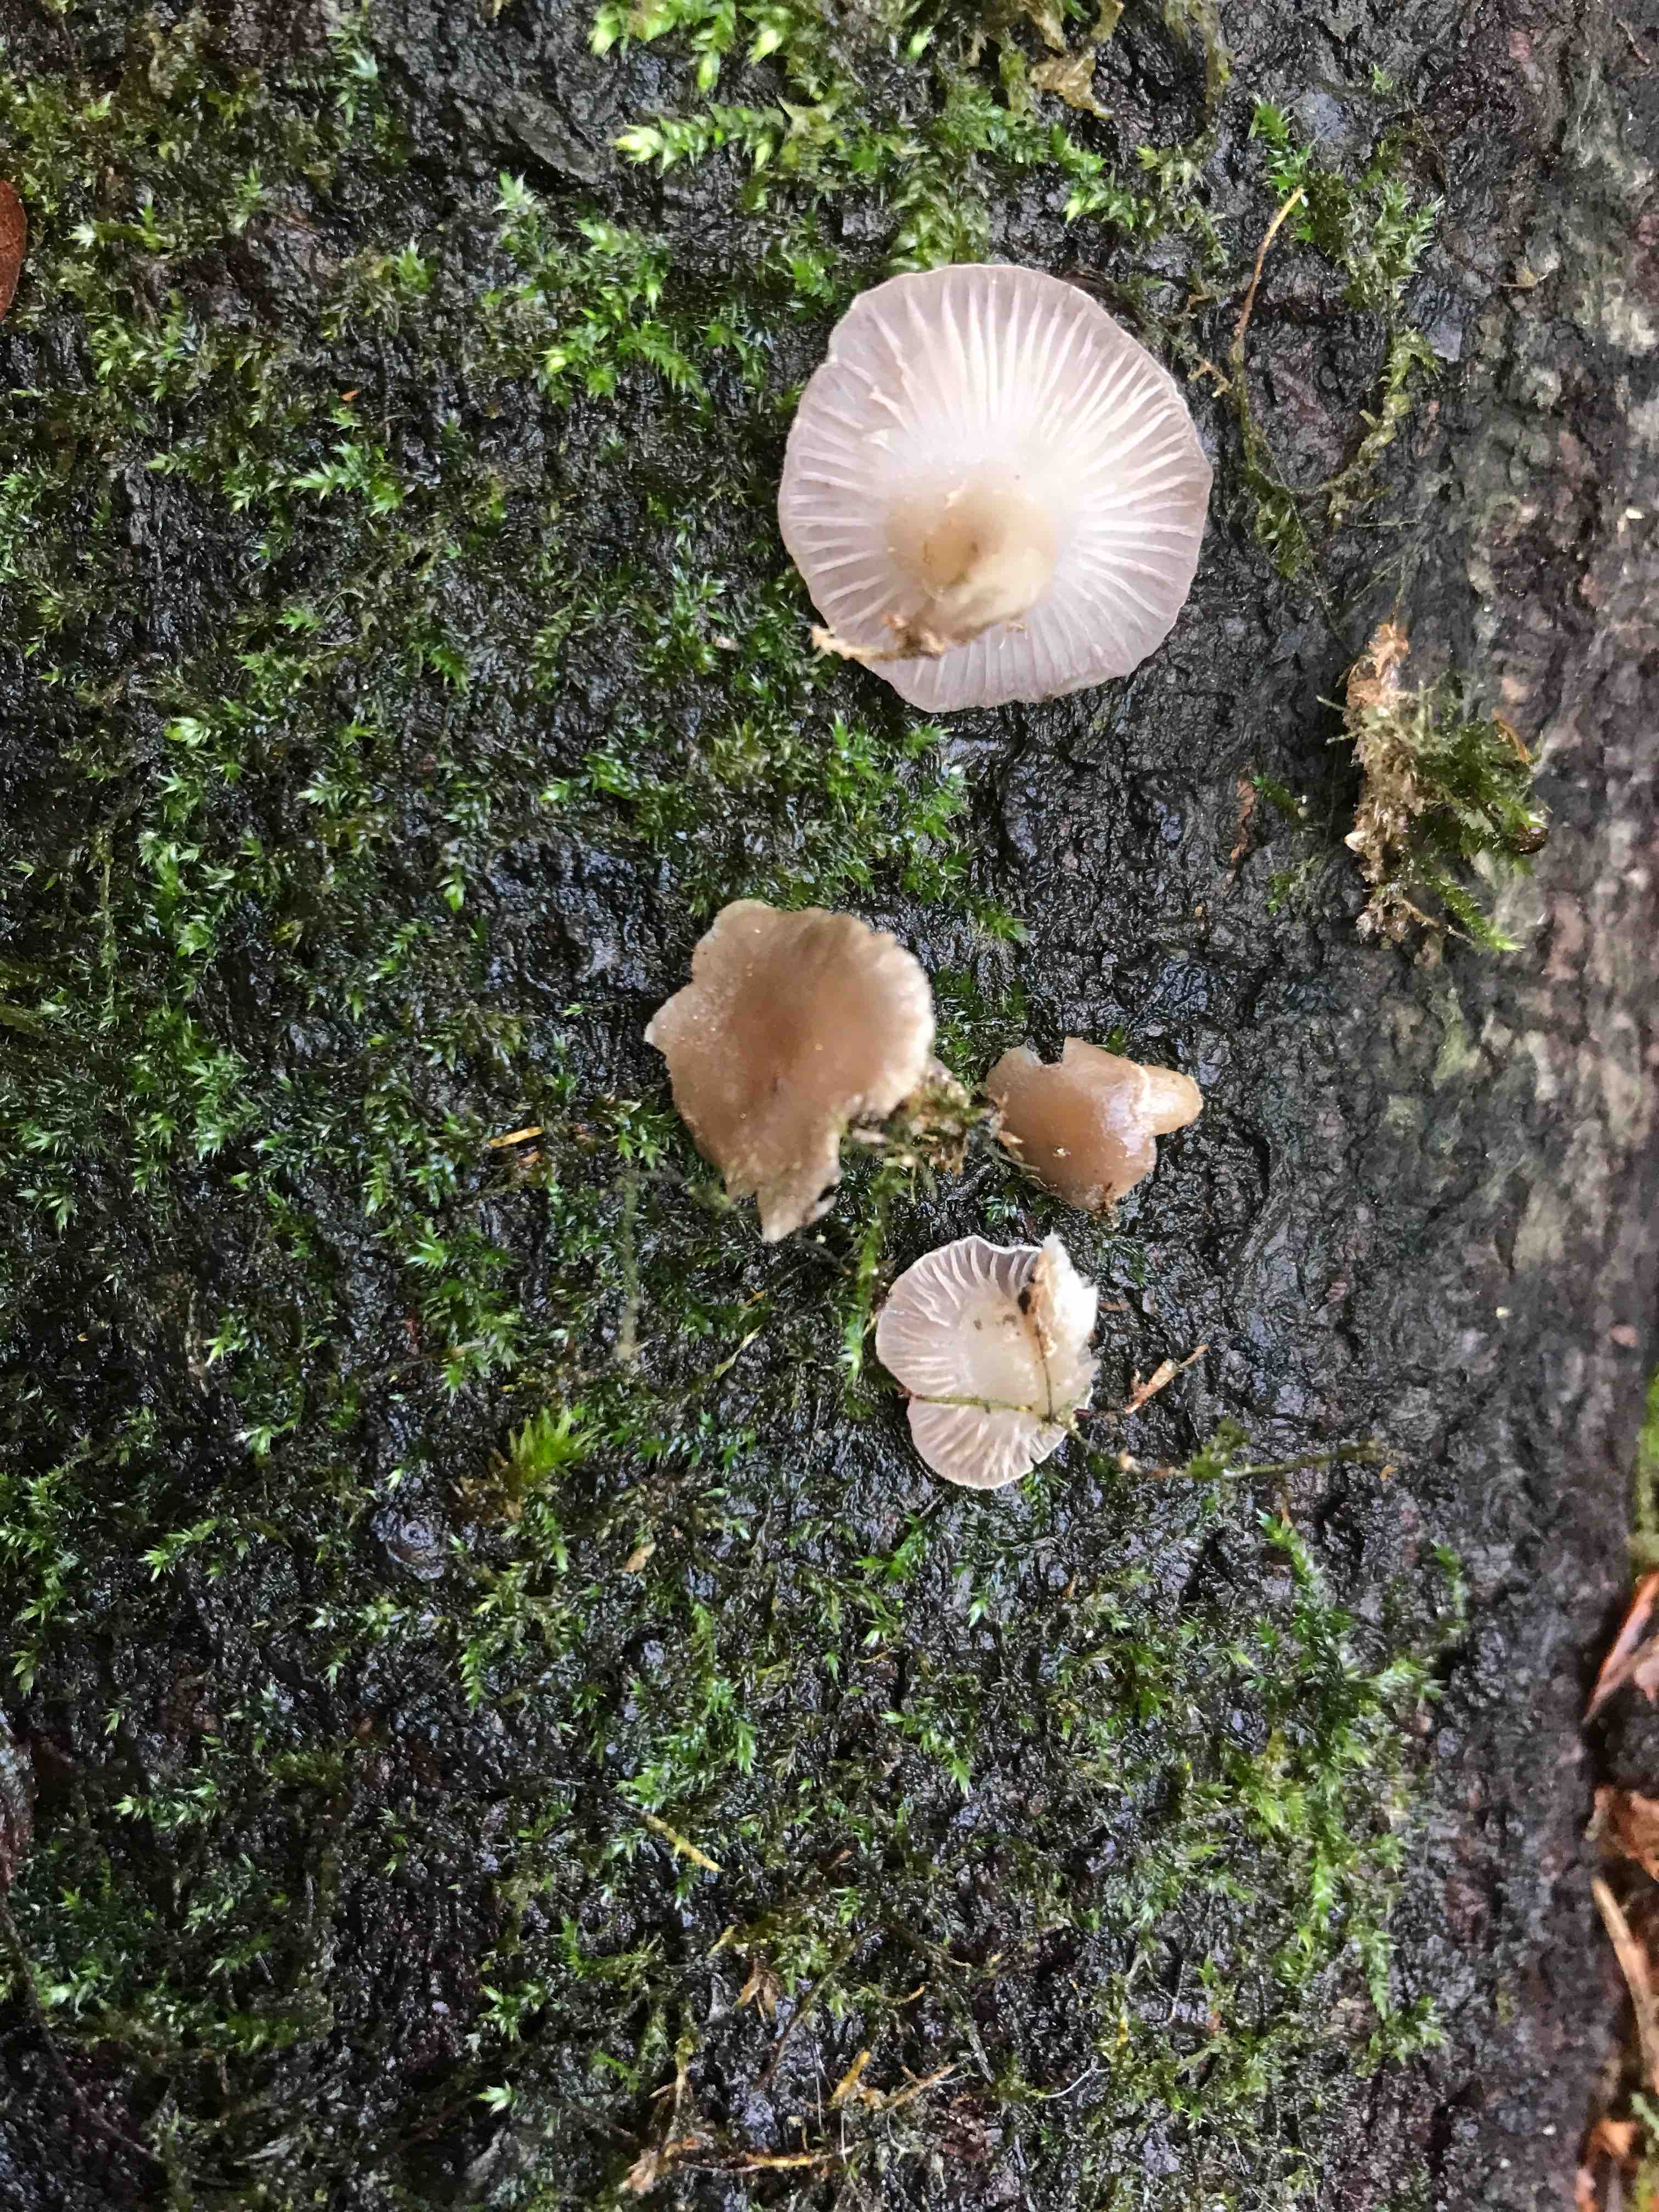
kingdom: Fungi
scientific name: Fungi
